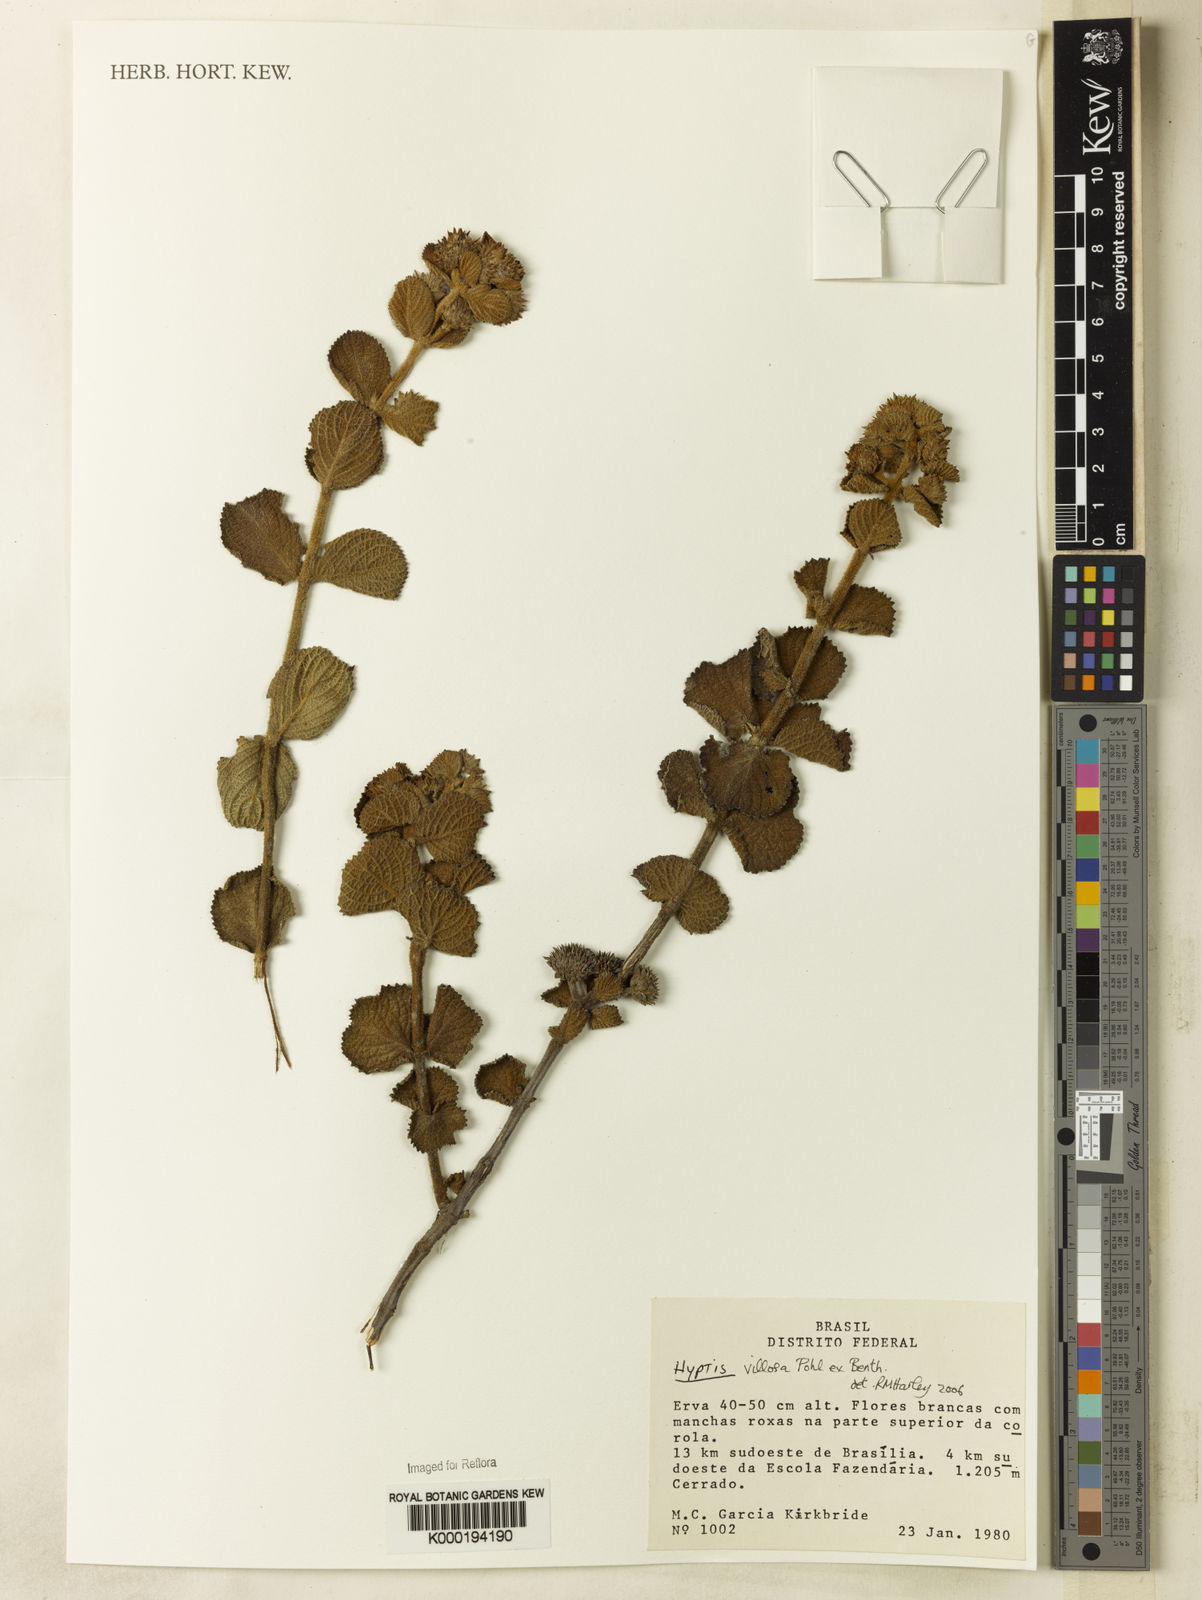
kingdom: Plantae
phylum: Tracheophyta
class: Magnoliopsida
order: Lamiales
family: Lamiaceae
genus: Hyptis
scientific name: Hyptis villosa
